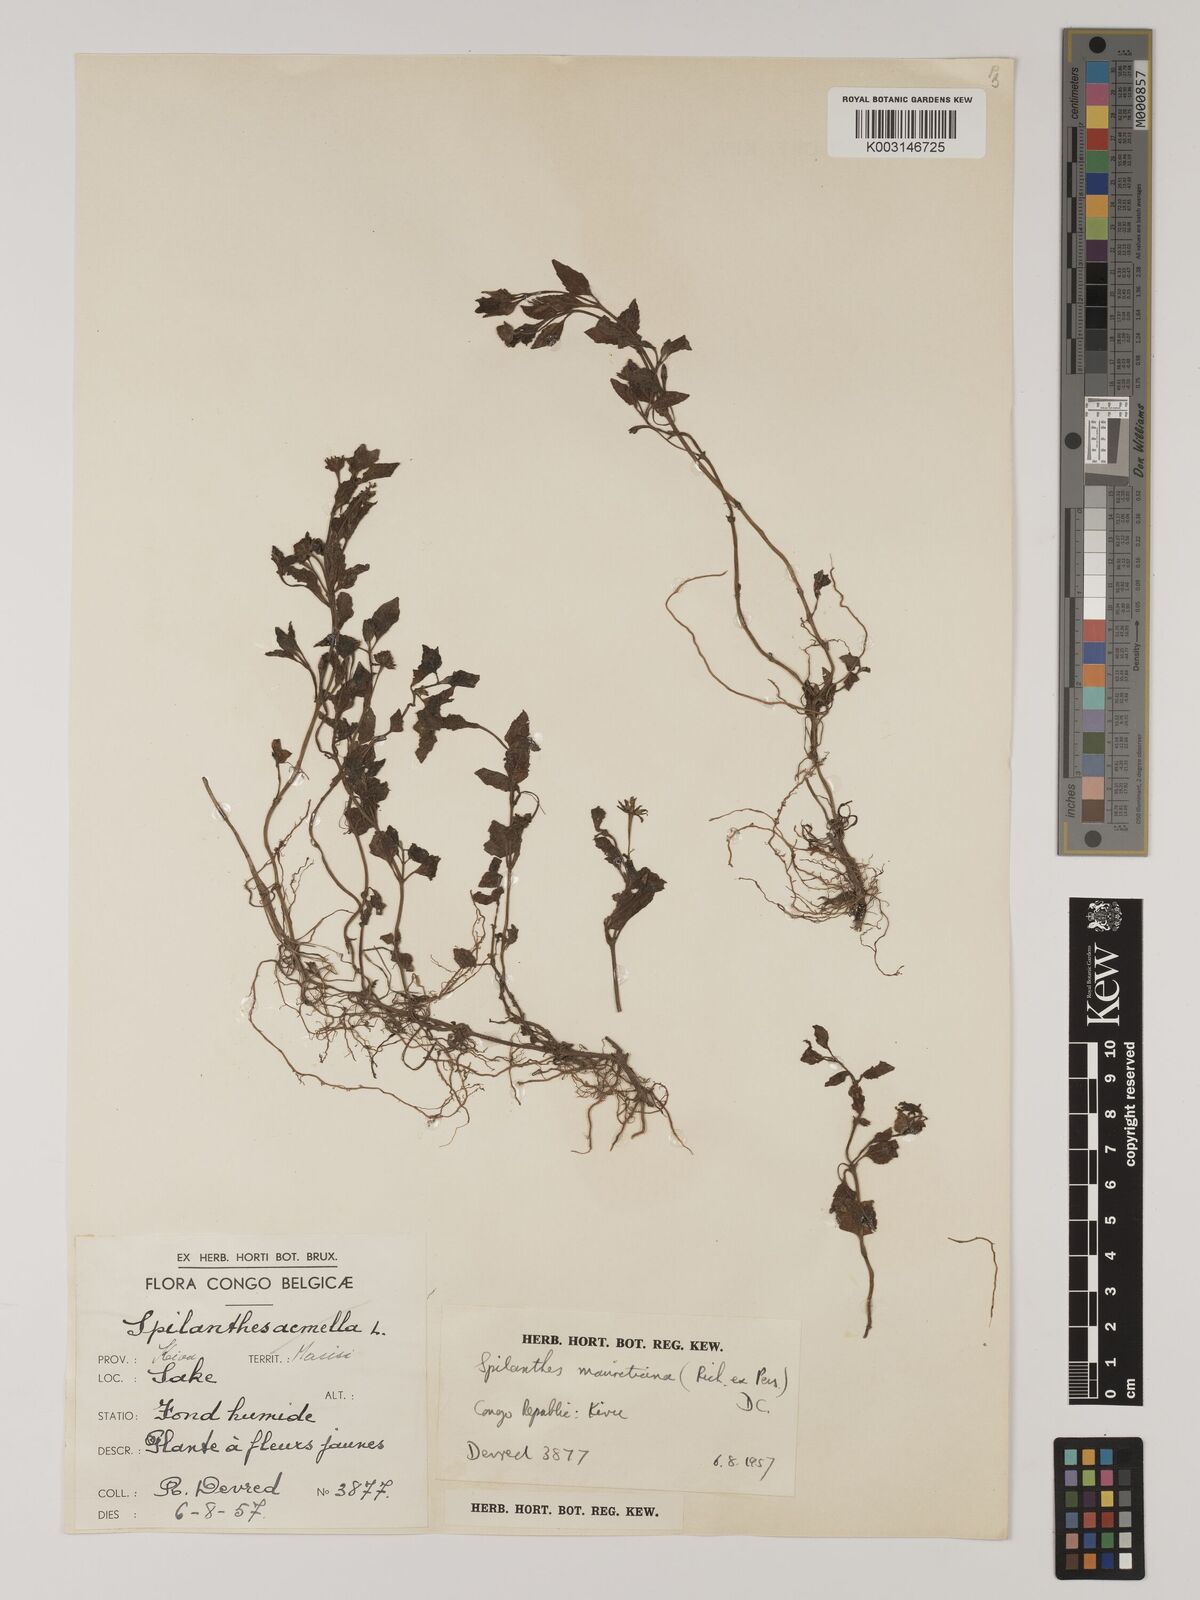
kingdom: Plantae
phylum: Tracheophyta
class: Magnoliopsida
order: Asterales
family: Asteraceae
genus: Blainvillea
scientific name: Blainvillea acmella
